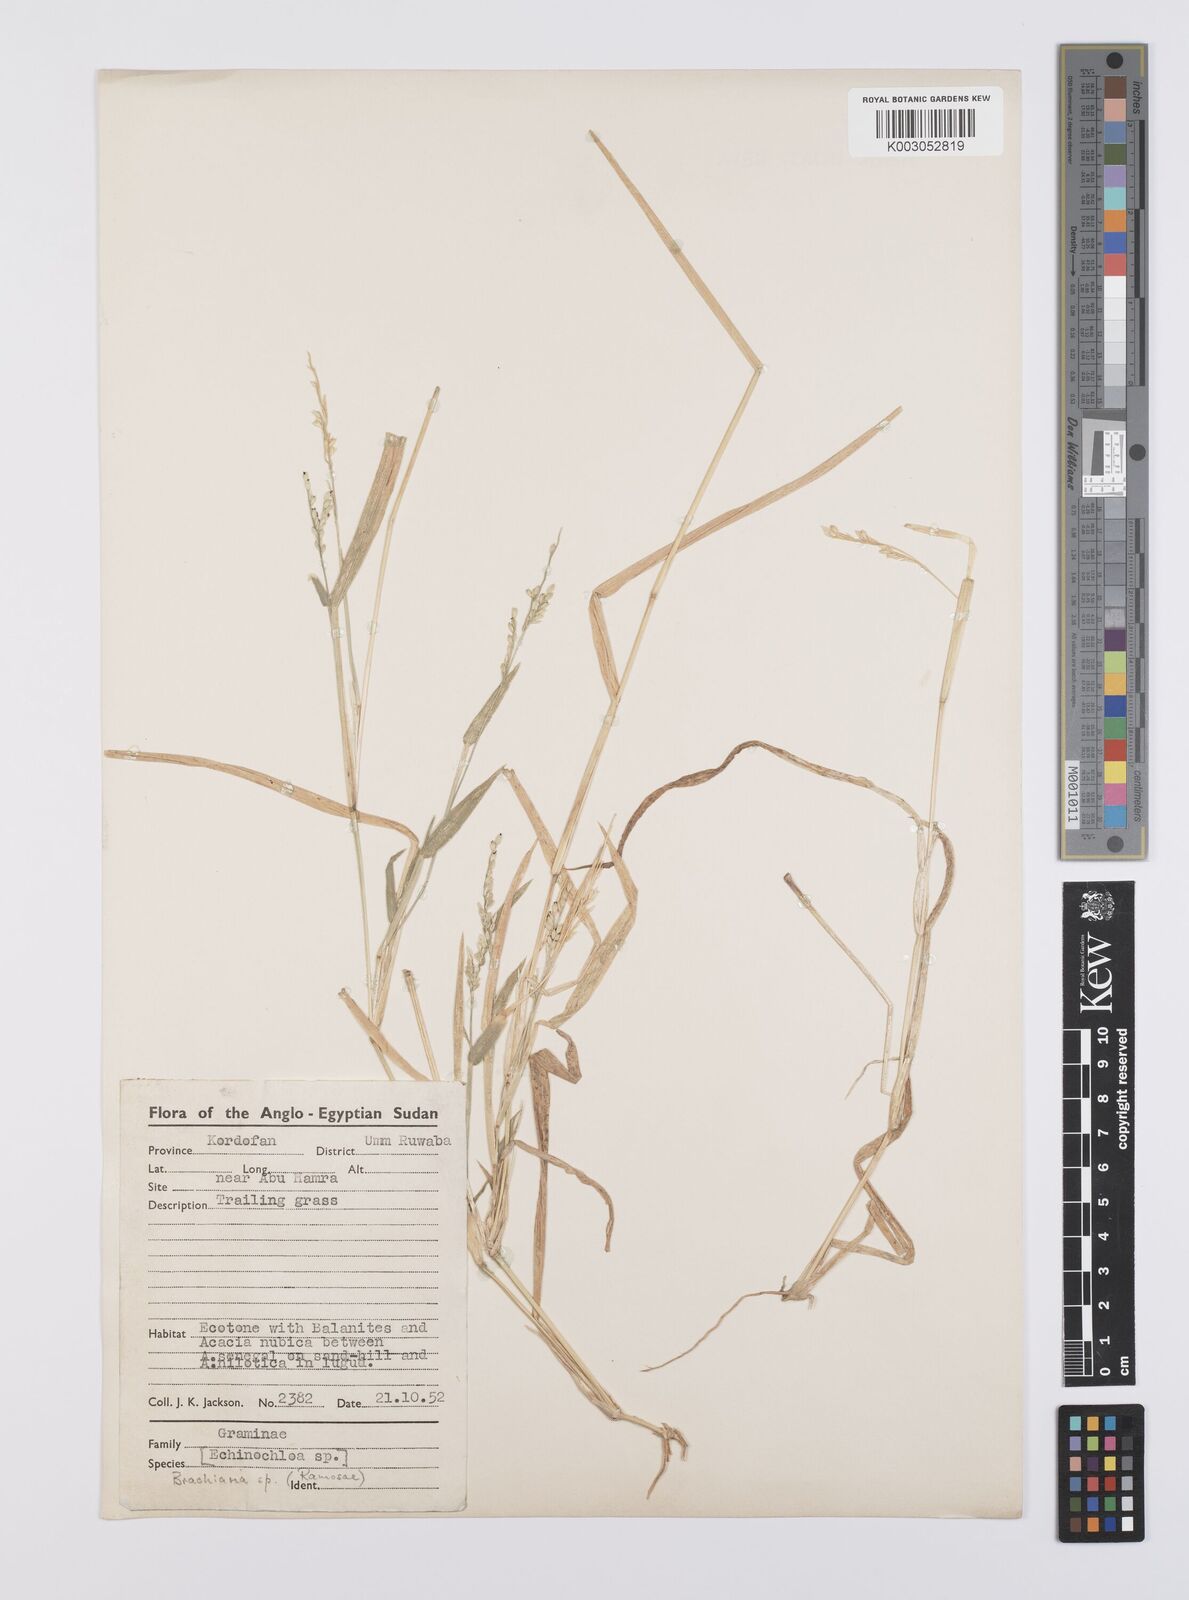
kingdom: Plantae
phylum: Tracheophyta
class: Liliopsida
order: Poales
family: Poaceae
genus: Urochloa
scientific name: Urochloa xantholeuca
